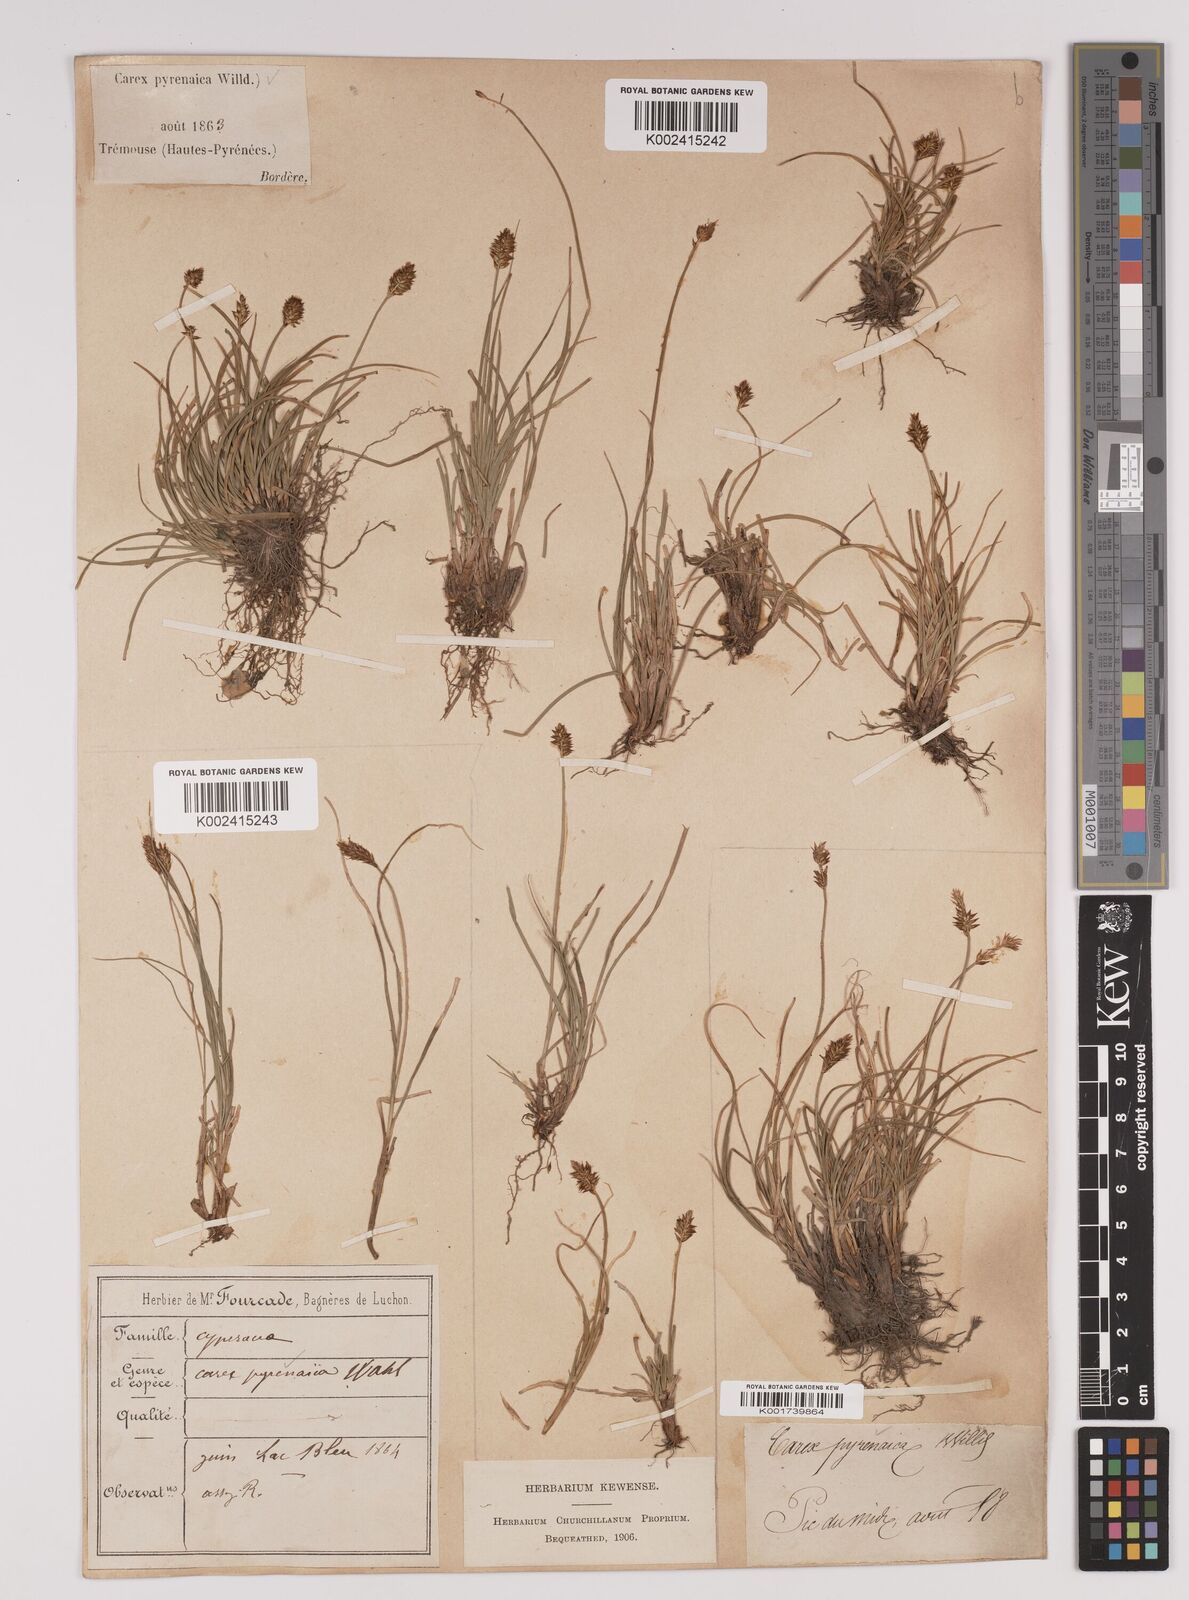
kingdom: Plantae
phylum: Tracheophyta
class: Liliopsida
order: Poales
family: Cyperaceae
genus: Carex
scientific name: Carex acicularis
